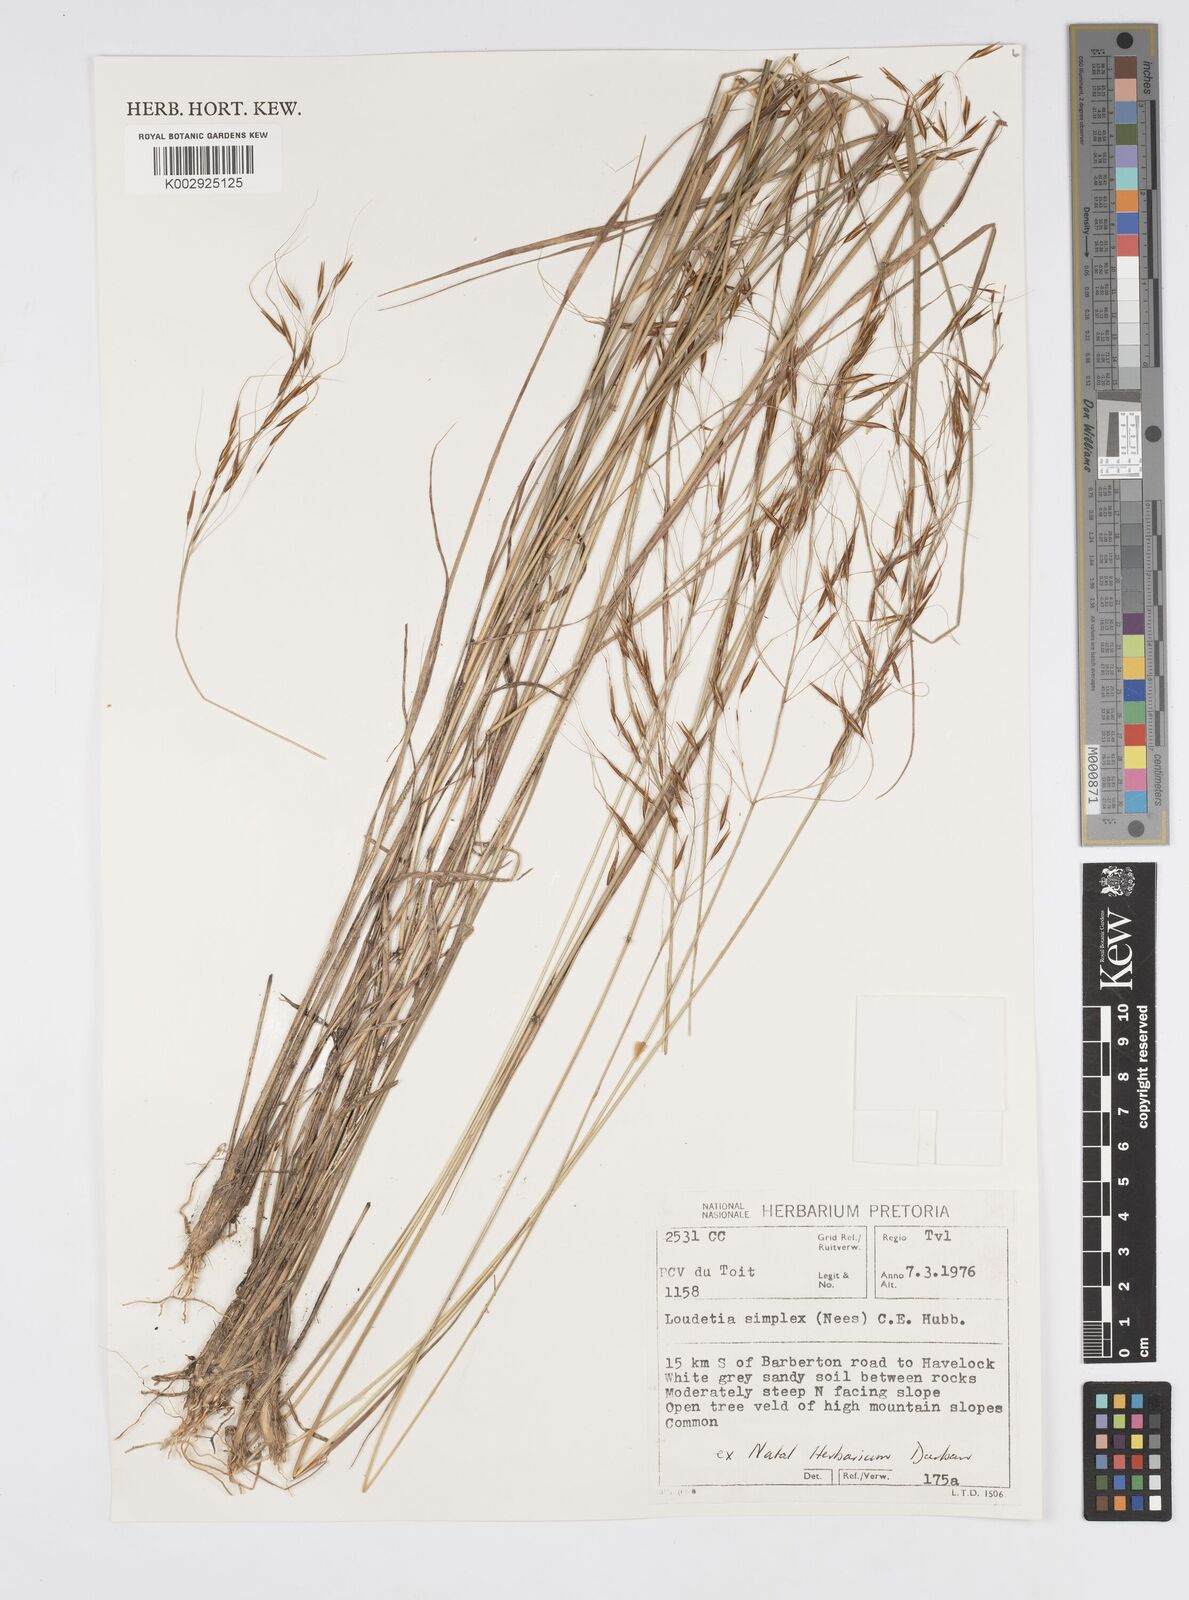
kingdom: Plantae
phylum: Tracheophyta
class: Liliopsida
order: Poales
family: Poaceae
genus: Loudetia
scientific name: Loudetia simplex
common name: Common russet grass
